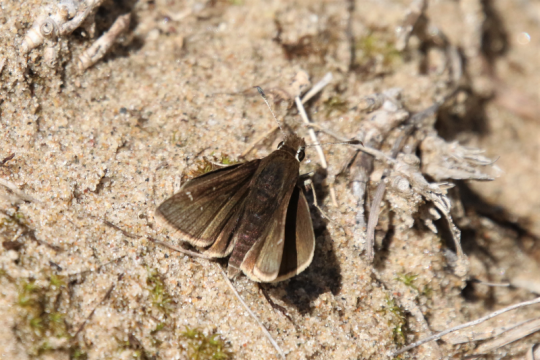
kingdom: Animalia
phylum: Arthropoda
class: Insecta
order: Lepidoptera
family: Hesperiidae
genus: Atrytonopsis
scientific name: Atrytonopsis hianna
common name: Dusted Skipper
